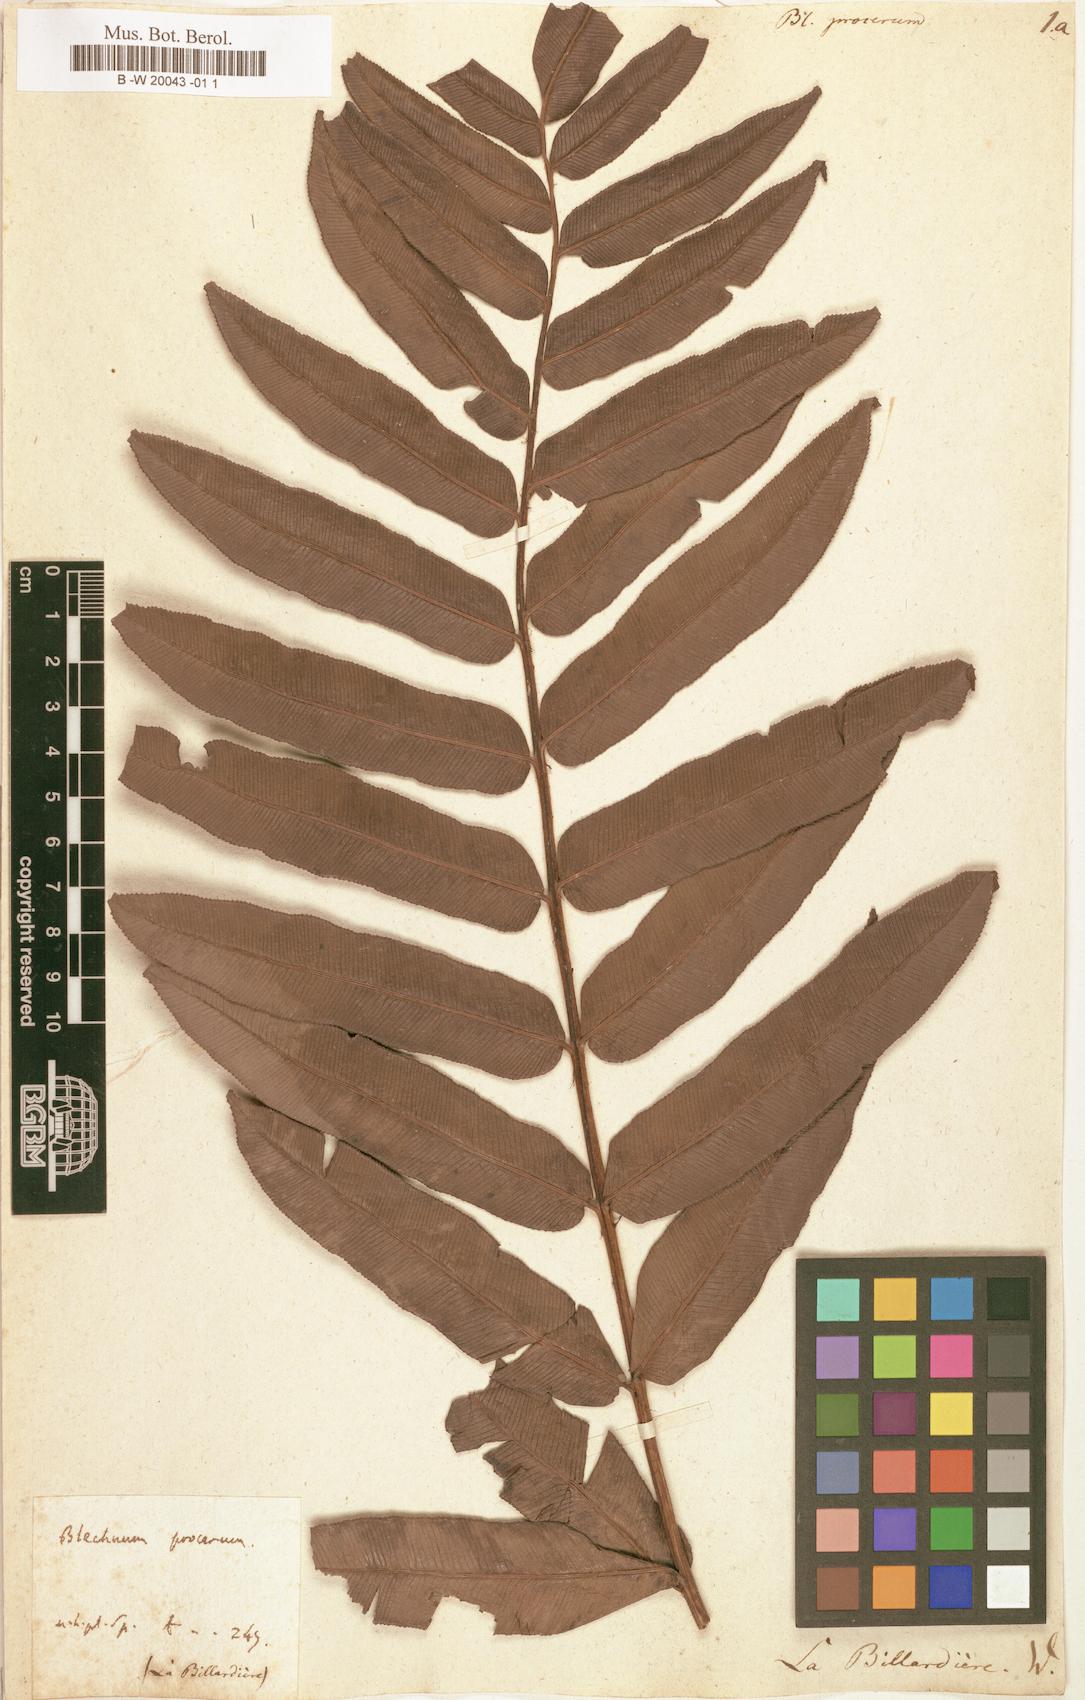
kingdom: Plantae
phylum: Tracheophyta
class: Polypodiopsida
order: Polypodiales
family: Blechnaceae
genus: Parablechnum
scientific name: Parablechnum procerum
